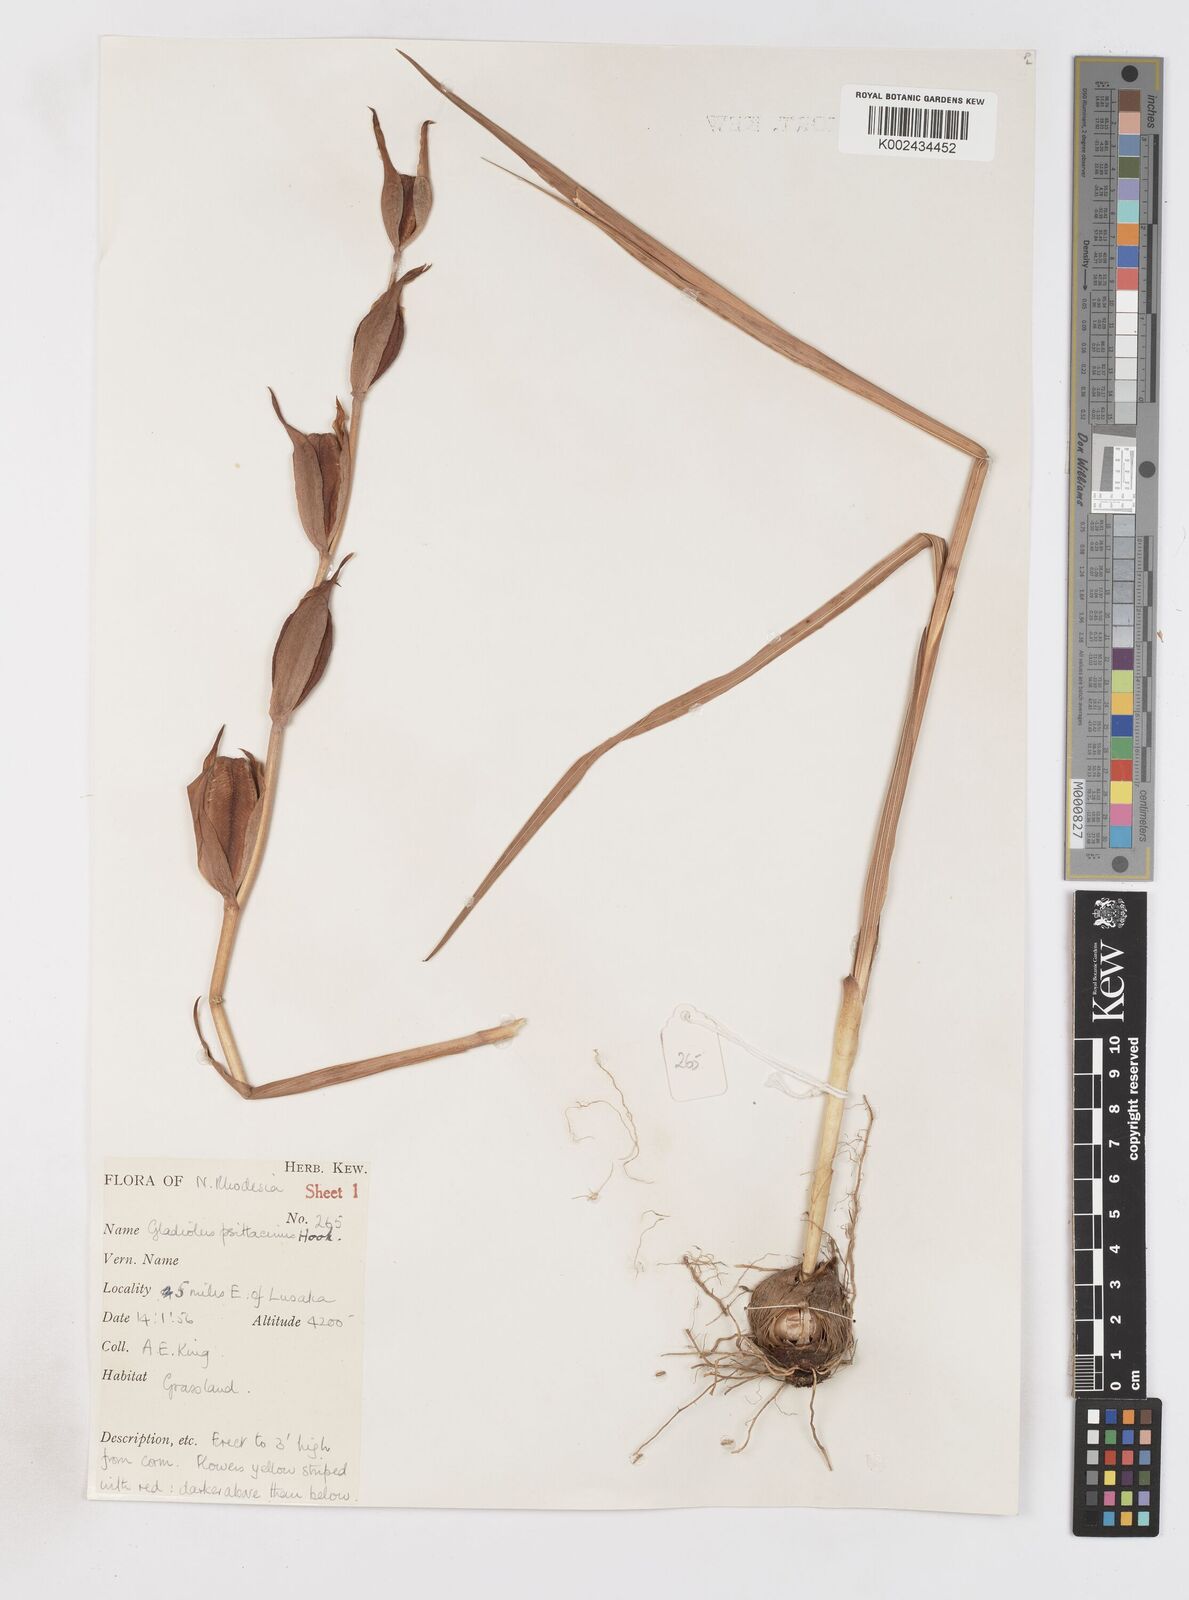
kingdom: Plantae
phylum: Tracheophyta
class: Liliopsida
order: Asparagales
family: Iridaceae
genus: Gladiolus
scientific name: Gladiolus dalenii
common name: Cornflag
